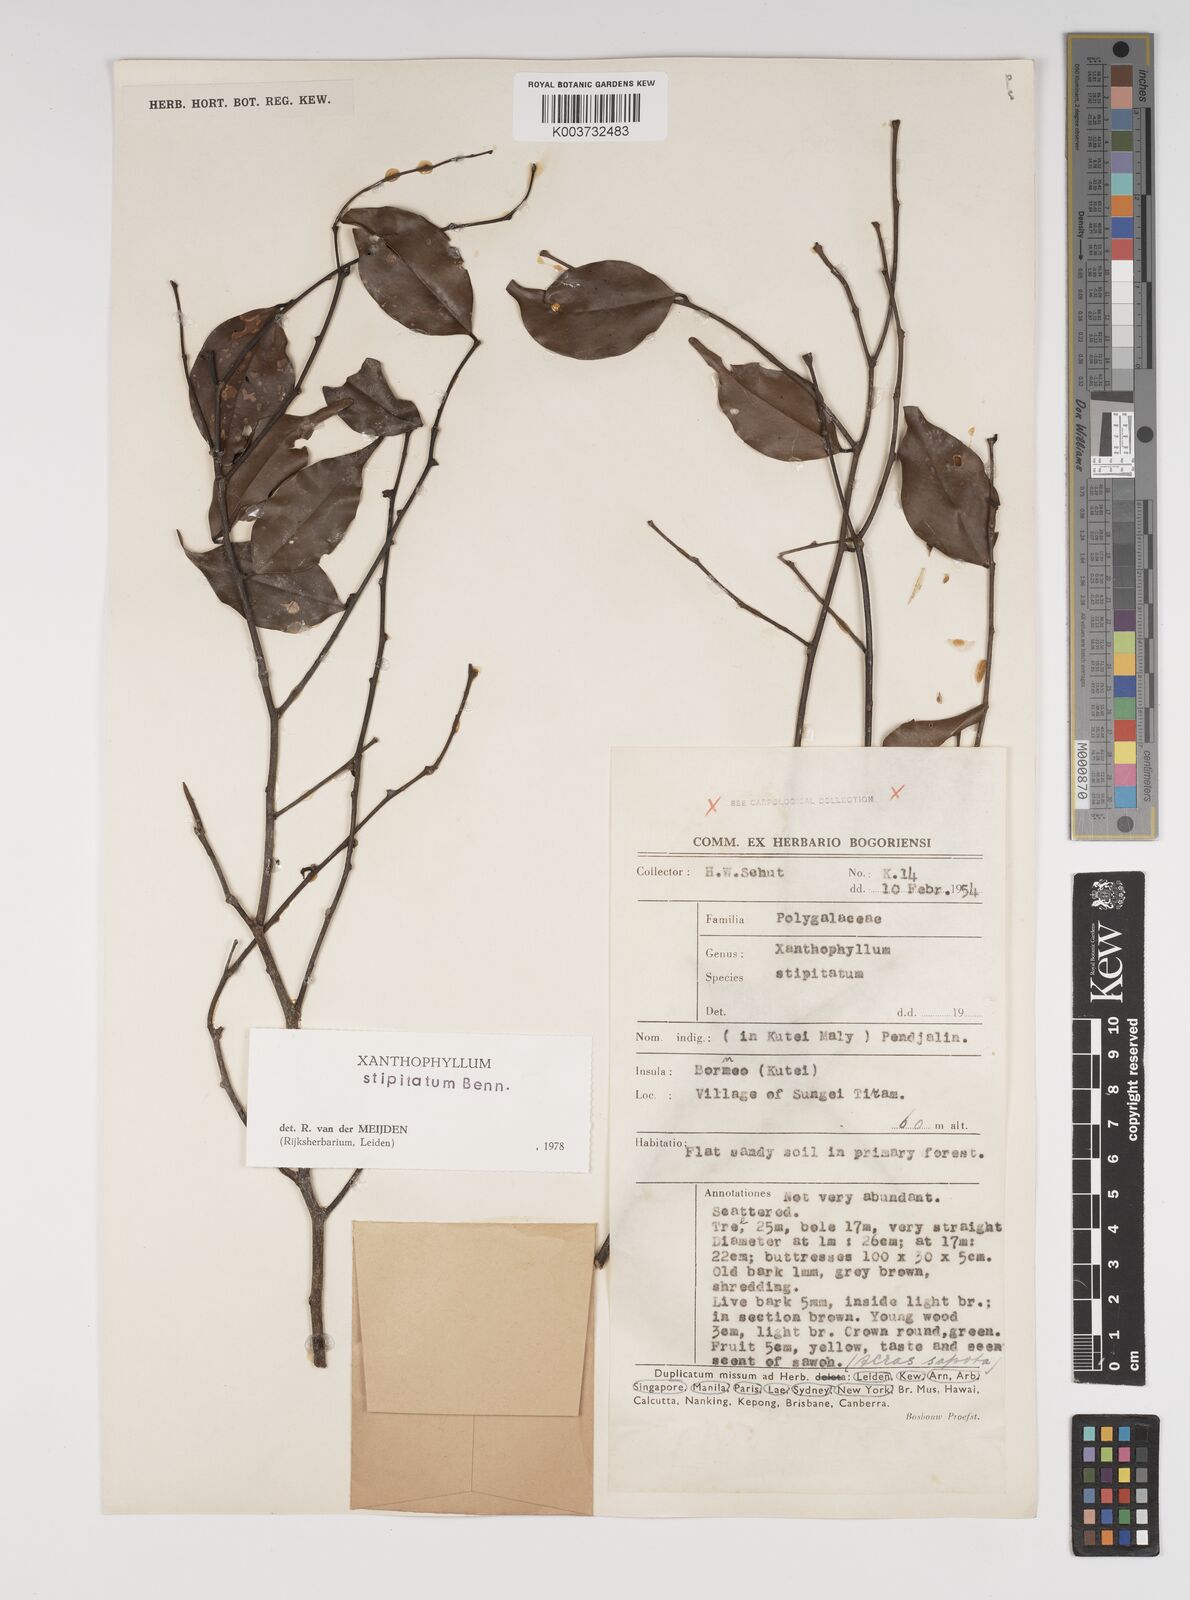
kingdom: Plantae
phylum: Tracheophyta
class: Magnoliopsida
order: Fabales
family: Polygalaceae
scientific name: Polygalaceae
